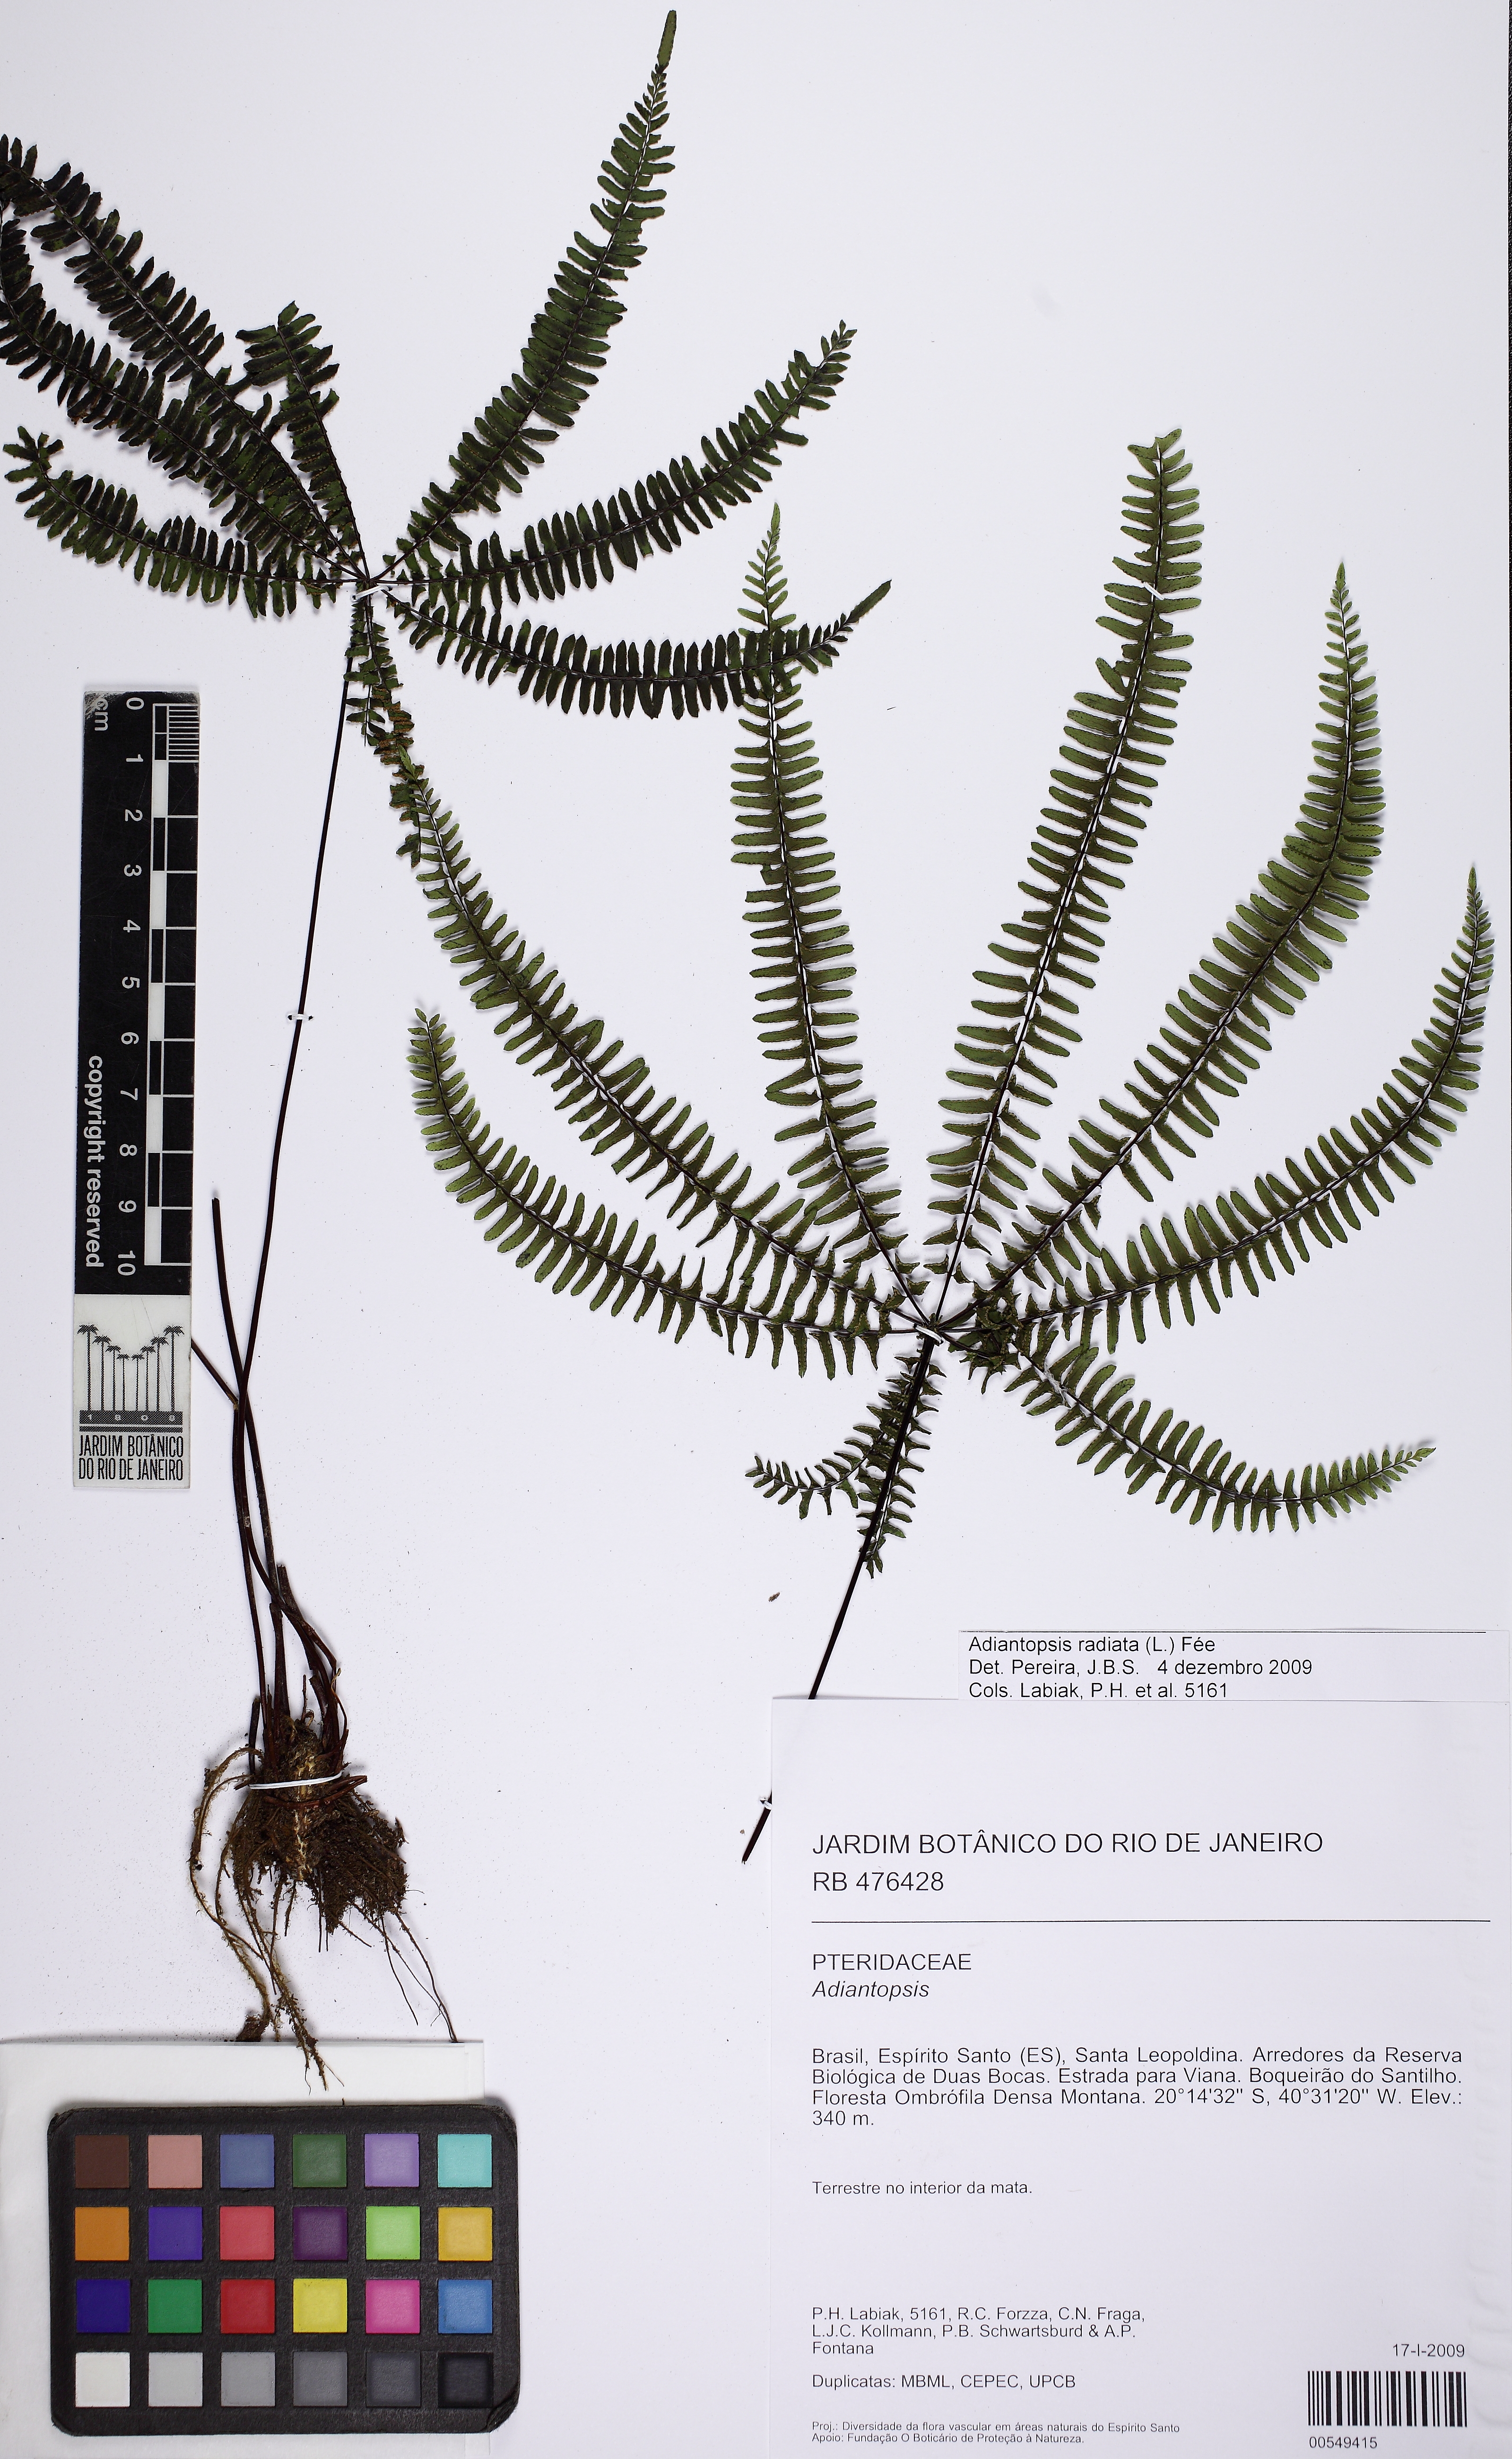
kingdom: Plantae
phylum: Tracheophyta
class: Polypodiopsida
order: Polypodiales
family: Pteridaceae
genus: Adiantopsis
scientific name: Adiantopsis radiata
